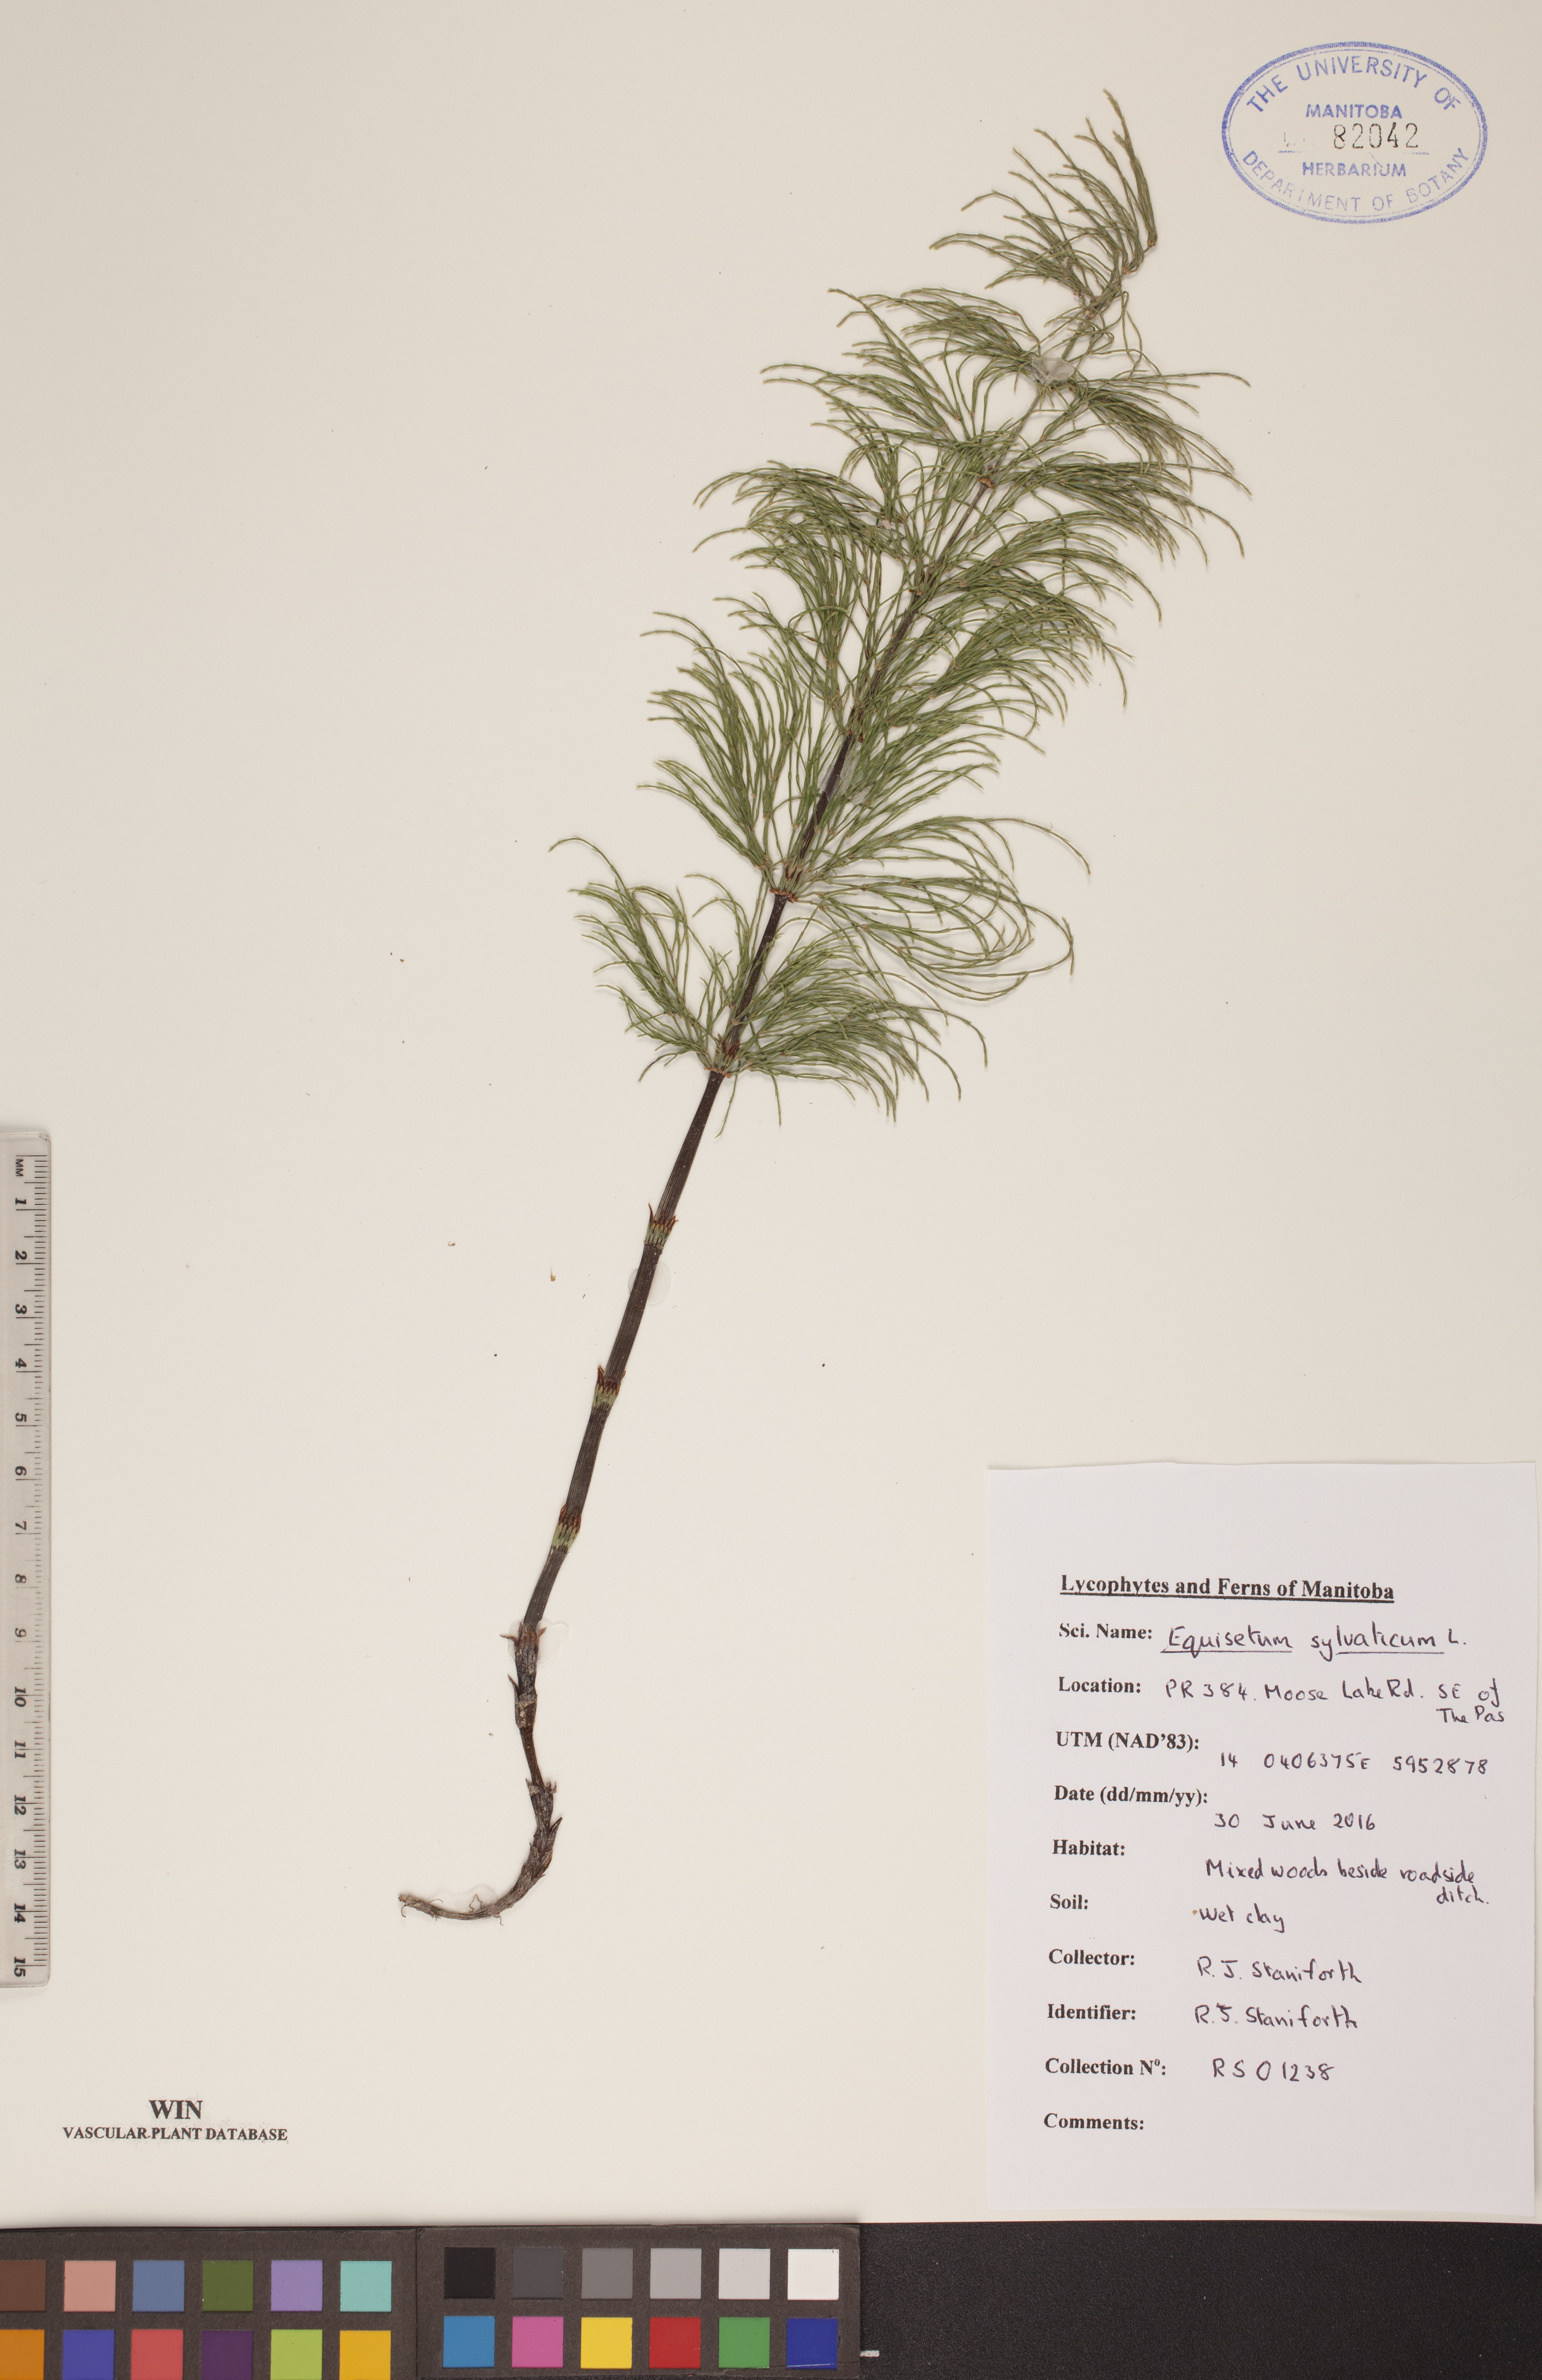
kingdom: Plantae
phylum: Tracheophyta
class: Polypodiopsida
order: Equisetales
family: Equisetaceae
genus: Equisetum
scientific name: Equisetum sylvaticum
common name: Wood horsetail
